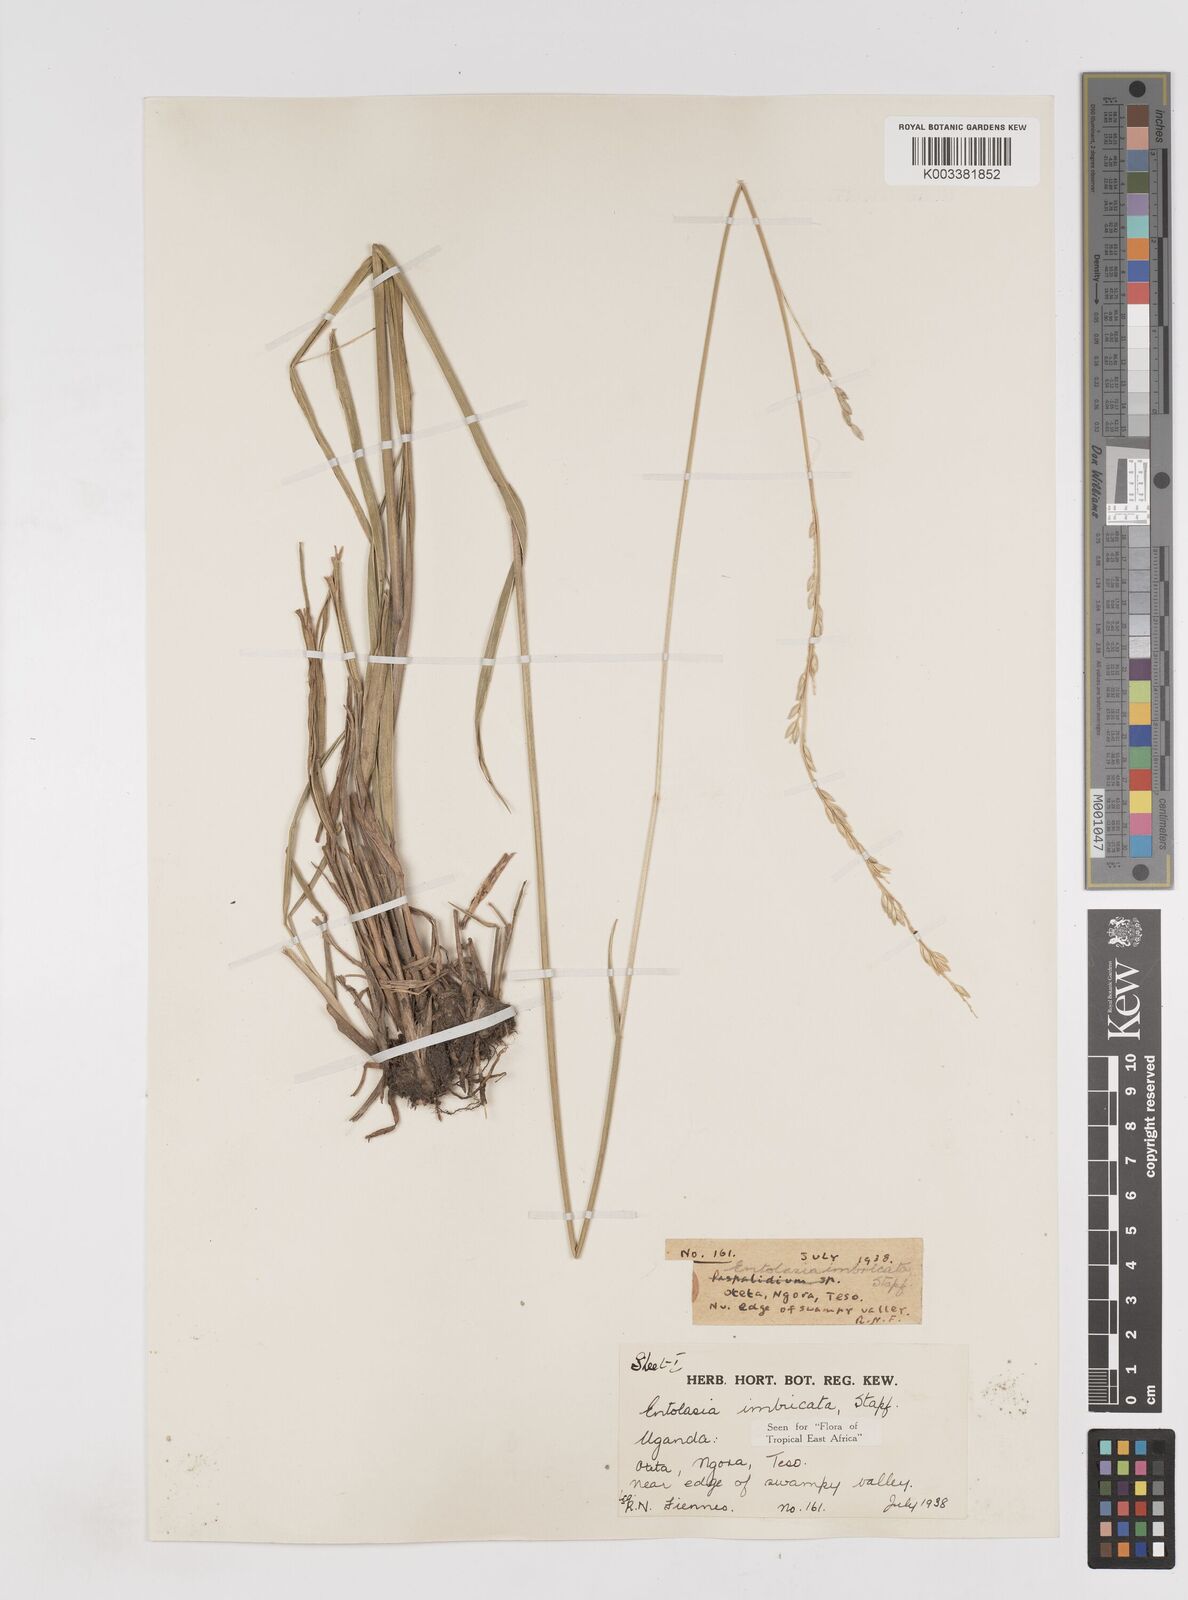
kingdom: Plantae
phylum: Tracheophyta
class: Liliopsida
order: Poales
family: Poaceae
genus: Entolasia
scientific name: Entolasia imbricata
